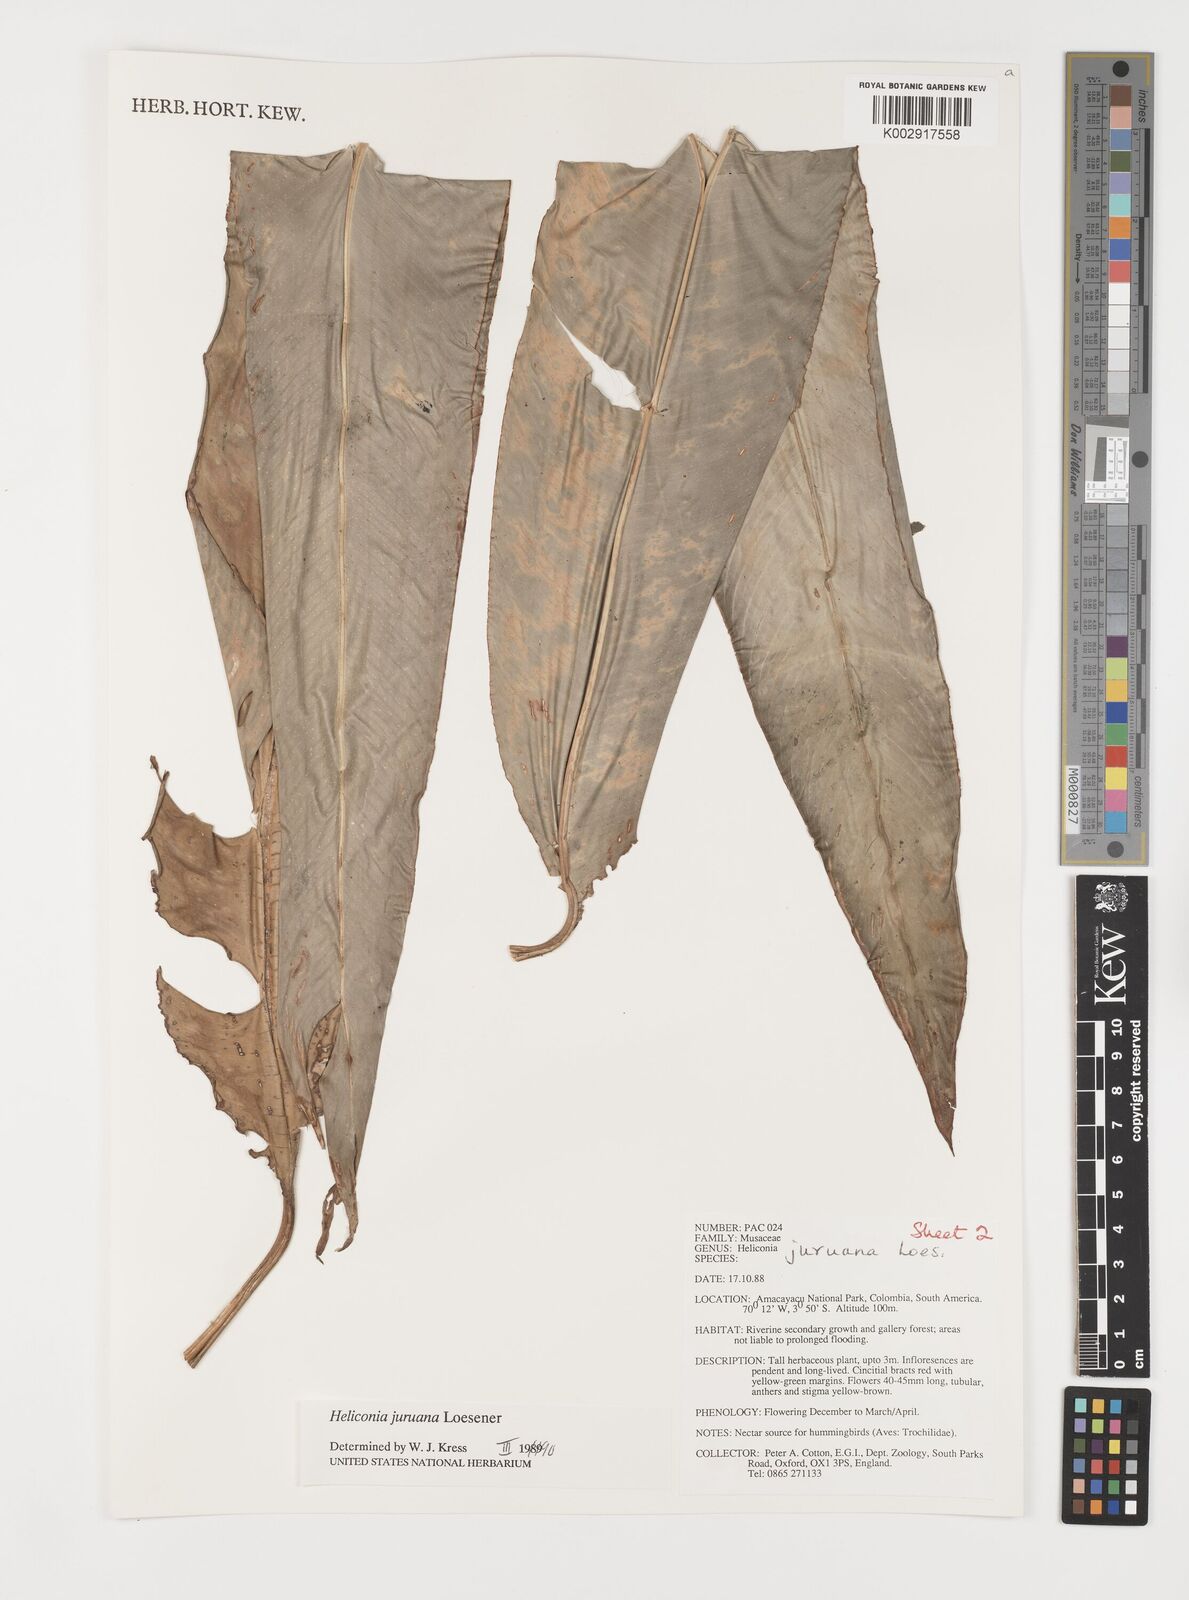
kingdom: Plantae
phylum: Tracheophyta
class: Liliopsida
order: Zingiberales
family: Heliconiaceae
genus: Heliconia
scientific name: Heliconia juruana
